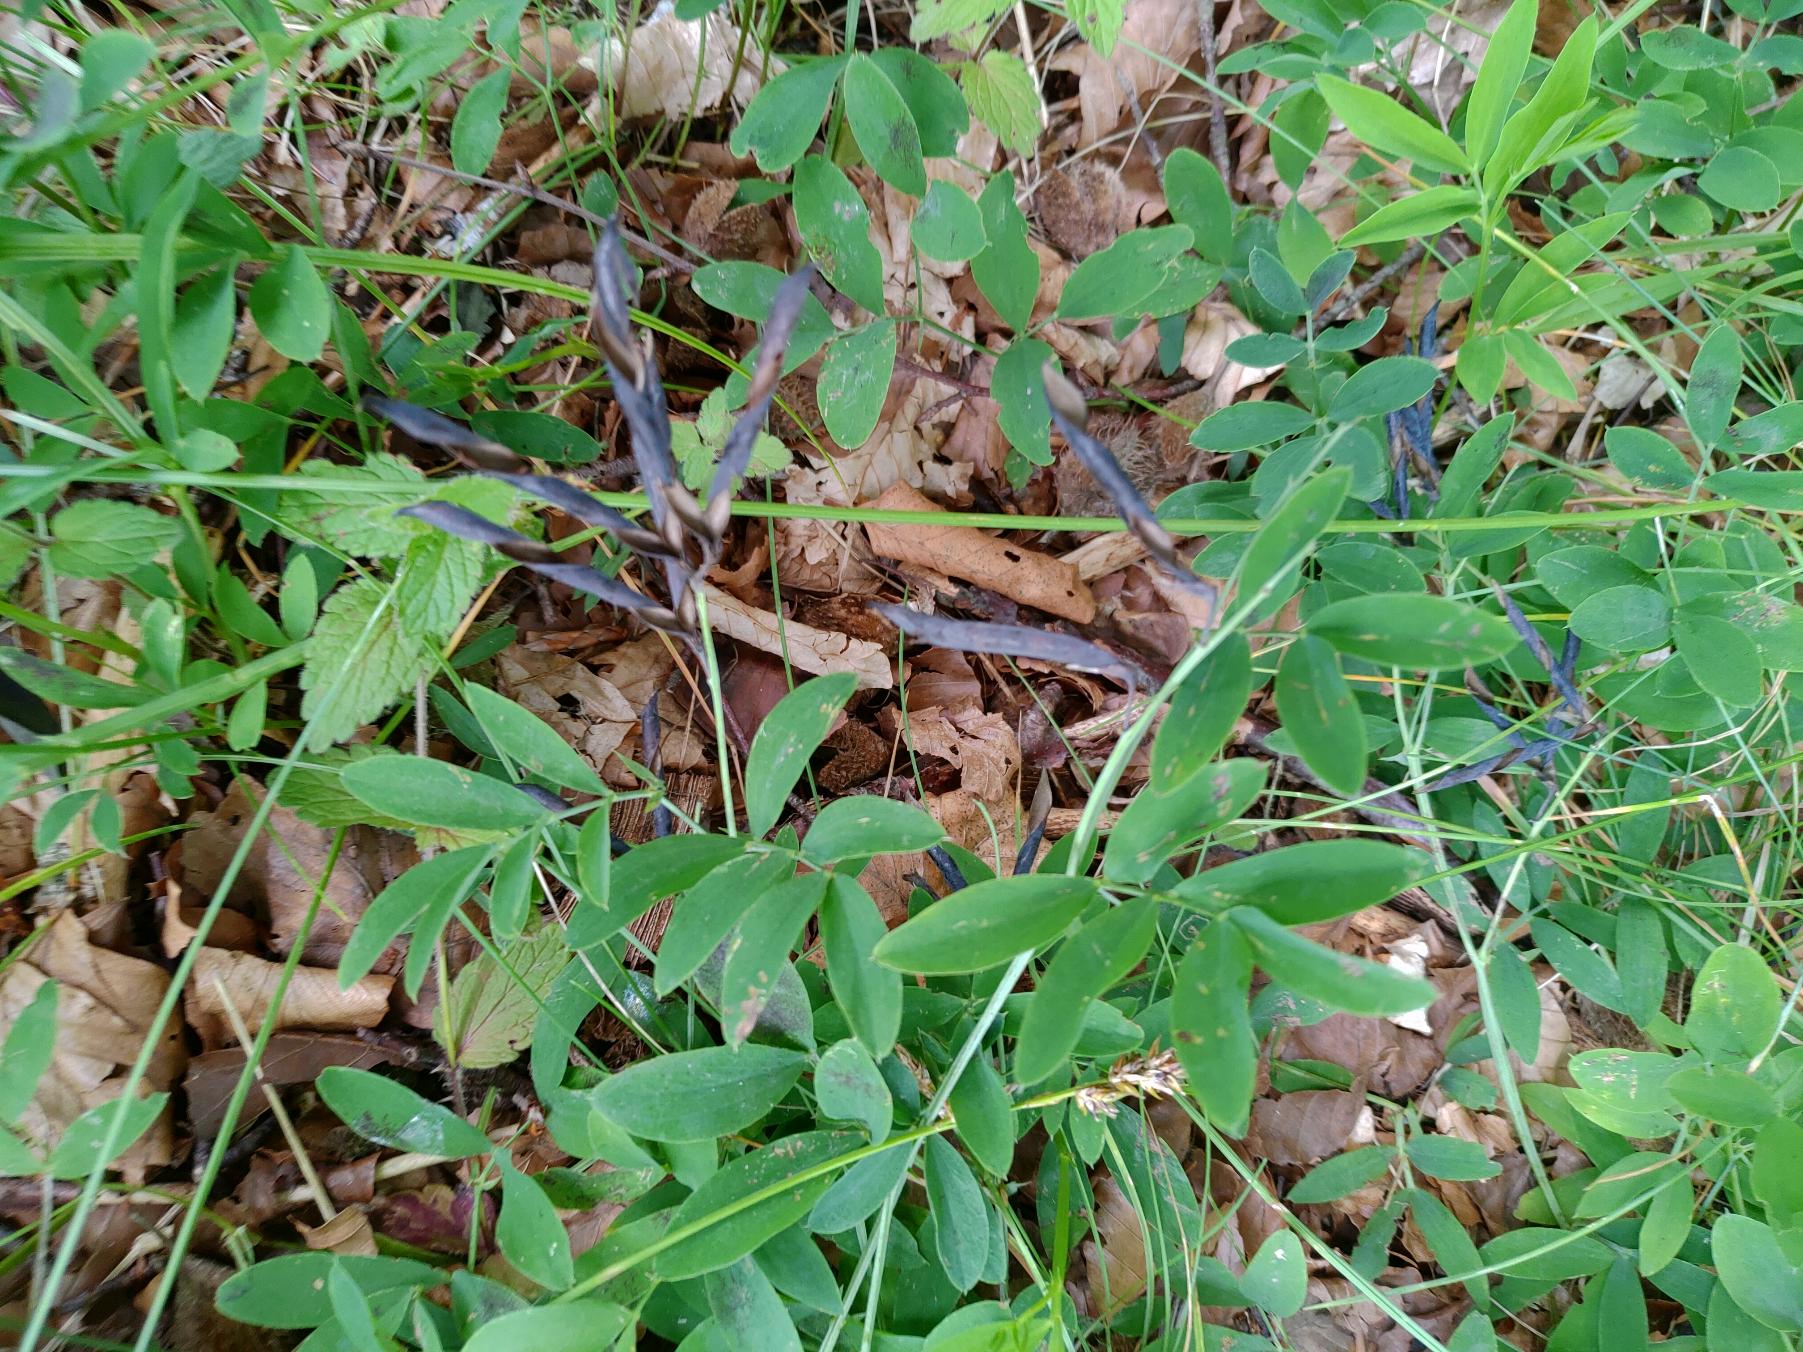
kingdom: Plantae
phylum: Tracheophyta
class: Magnoliopsida
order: Fabales
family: Fabaceae
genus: Lathyrus
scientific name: Lathyrus linifolius
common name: Krat-fladbælg
